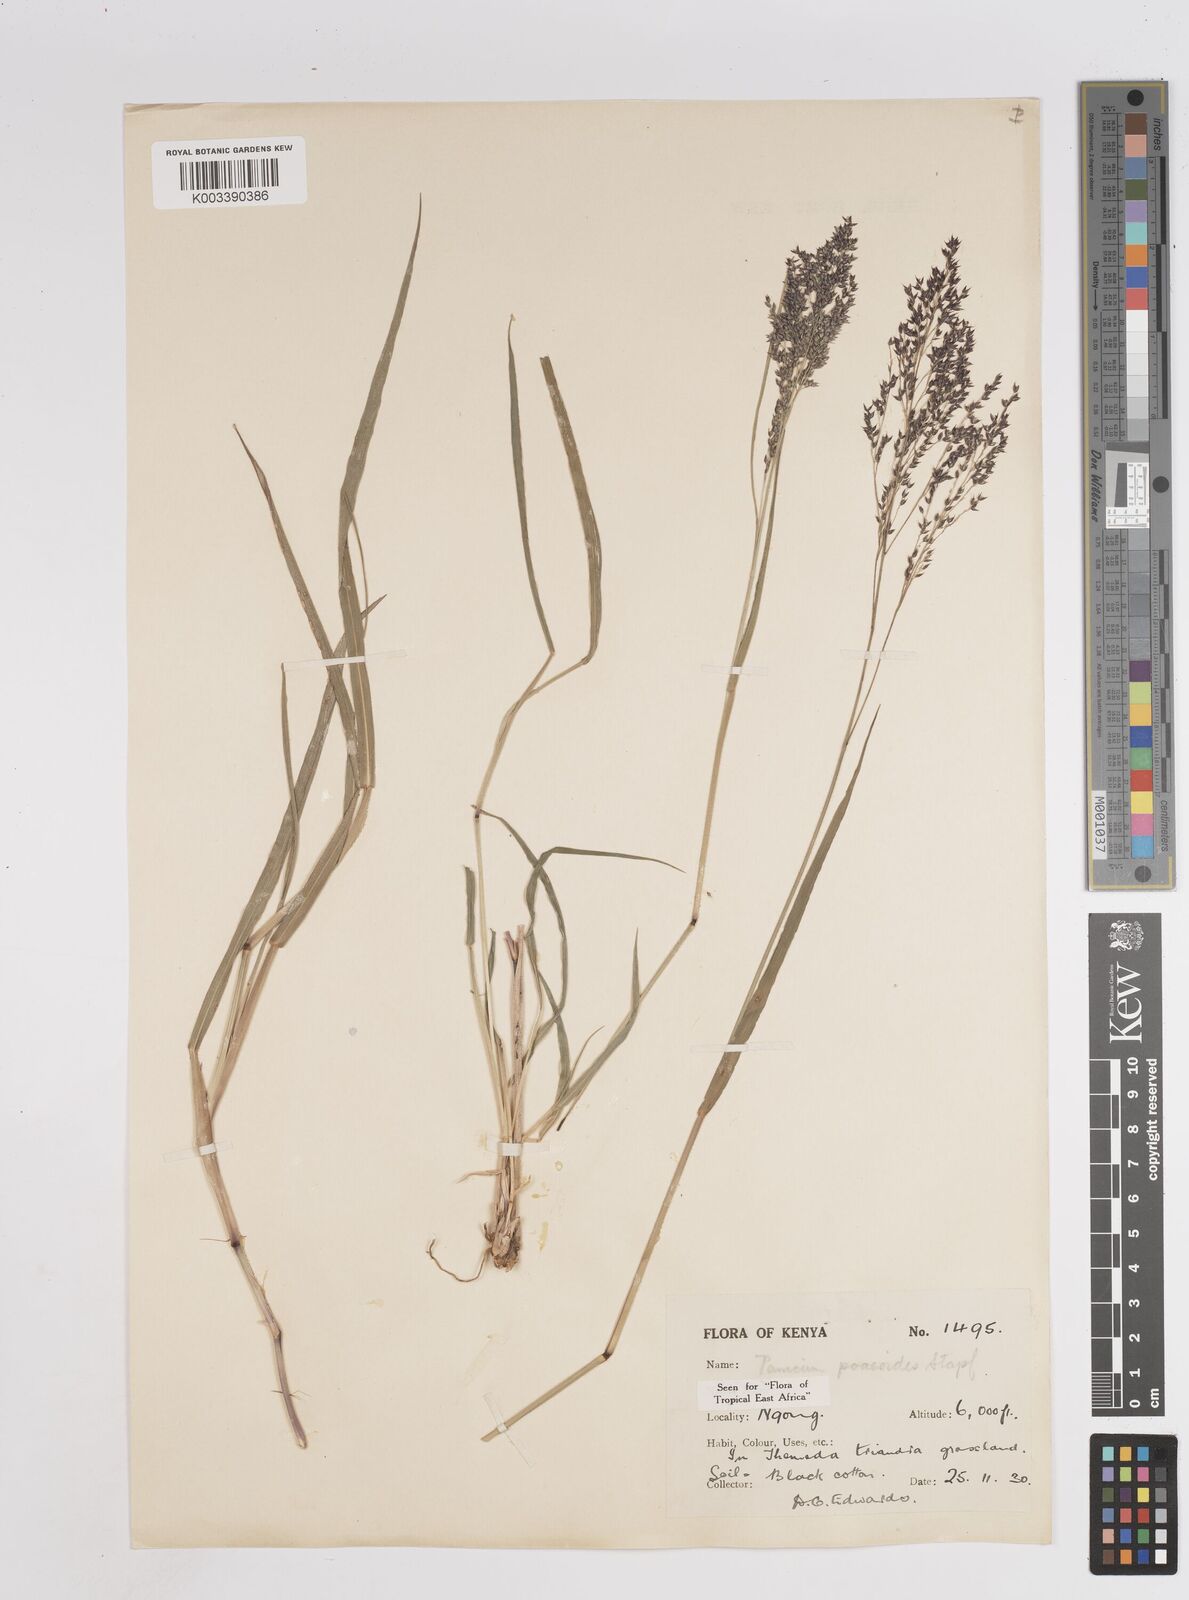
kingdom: Plantae
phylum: Tracheophyta
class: Liliopsida
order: Poales
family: Poaceae
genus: Panicum
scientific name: Panicum
